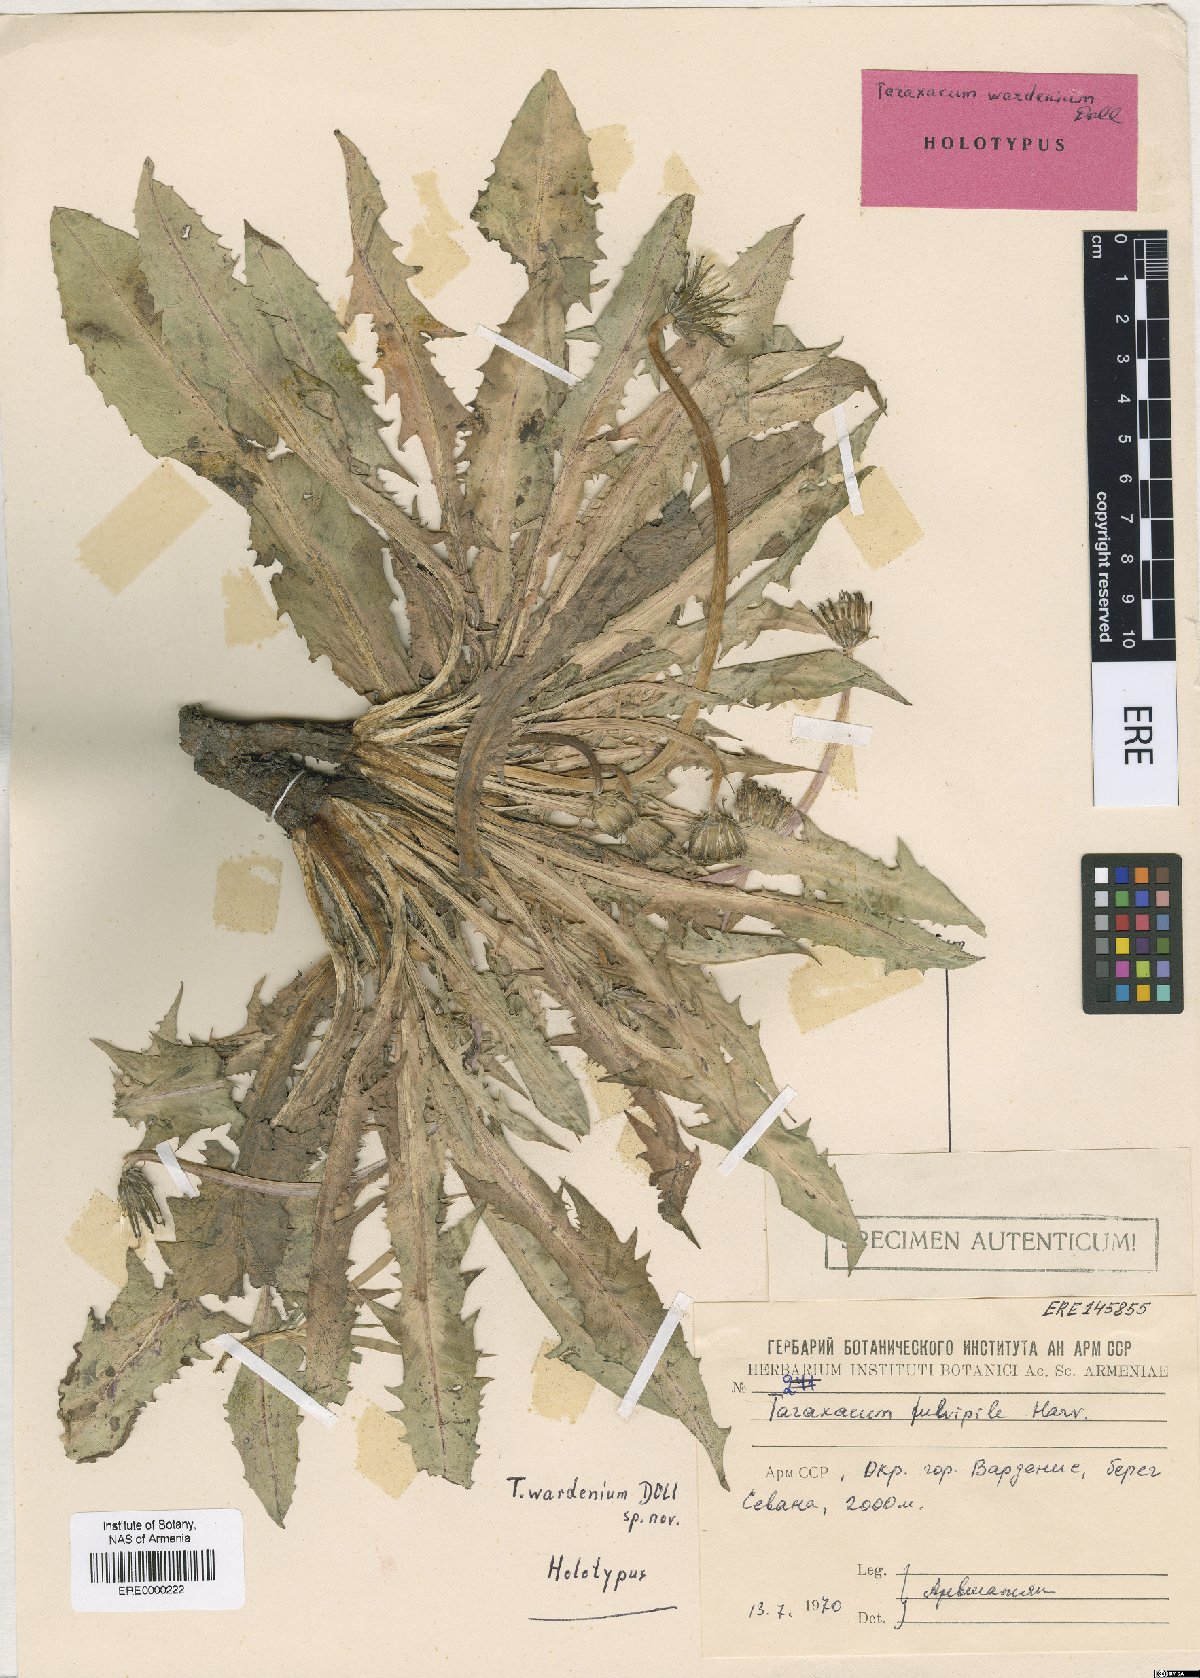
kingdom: Plantae
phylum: Tracheophyta
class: Magnoliopsida
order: Asterales
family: Asteraceae
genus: Taraxacum
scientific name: Taraxacum wardenium
